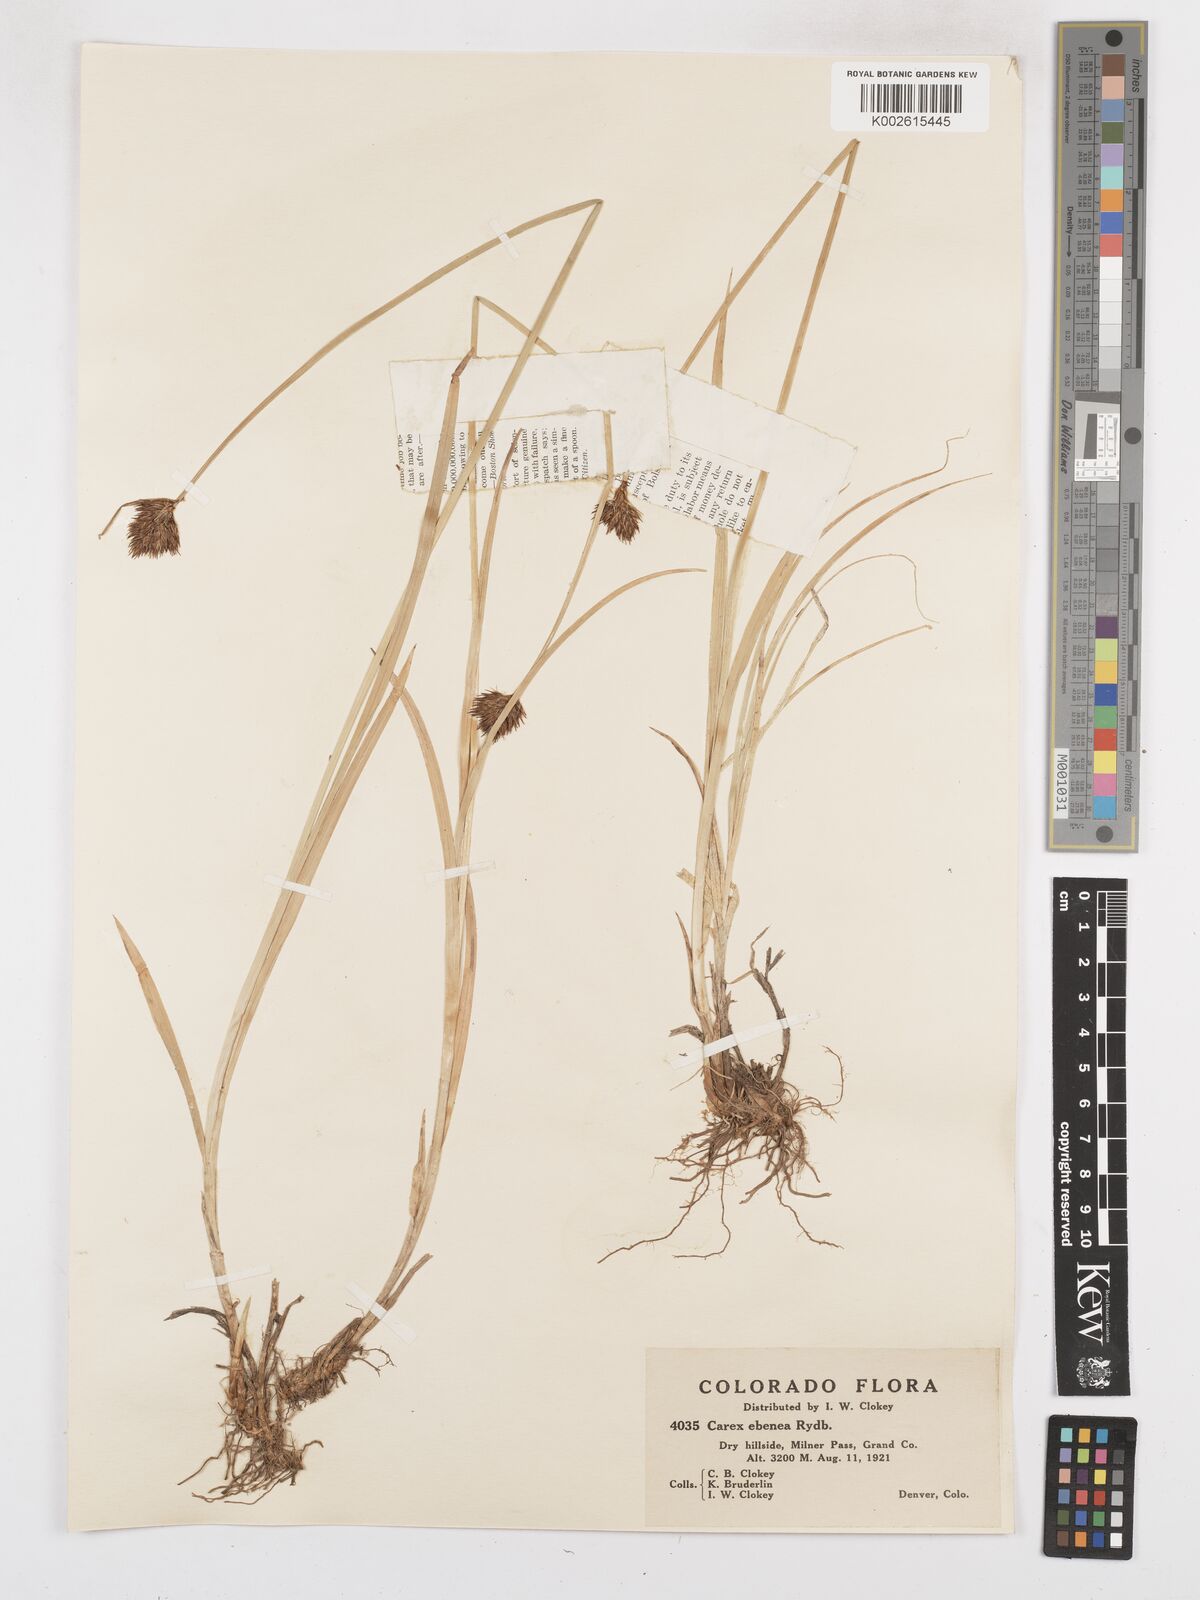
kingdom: Plantae
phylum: Tracheophyta
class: Liliopsida
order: Poales
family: Cyperaceae
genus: Carex
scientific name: Carex eburnea
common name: Bristle-leaved sedge
